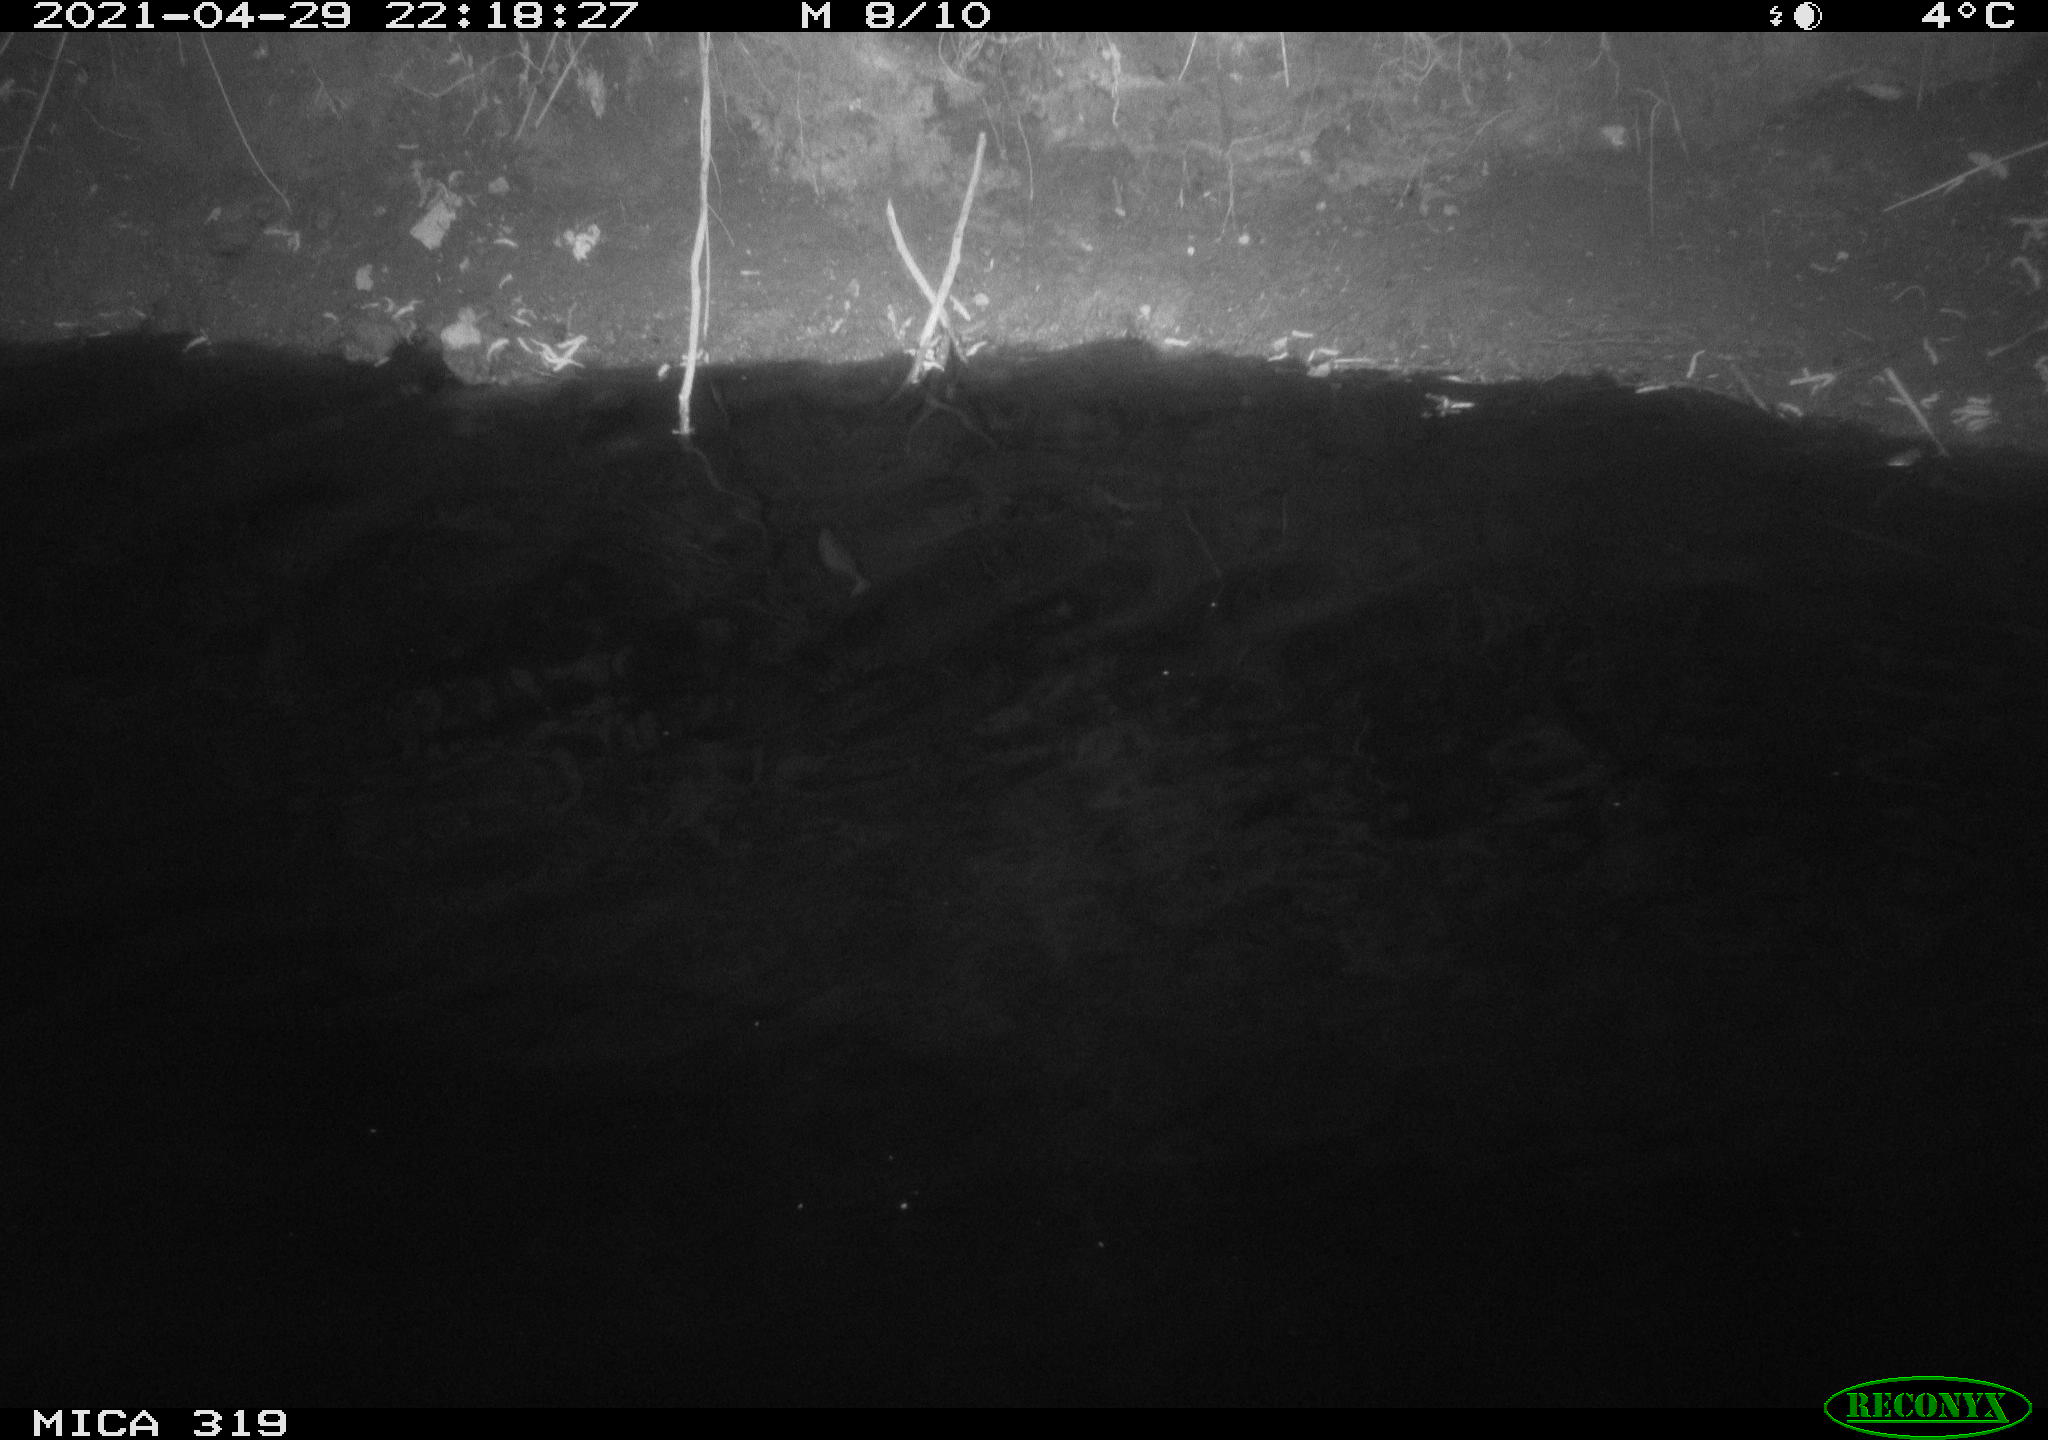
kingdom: Animalia
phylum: Chordata
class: Aves
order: Anseriformes
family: Anatidae
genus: Anas
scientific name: Anas platyrhynchos
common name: Mallard
